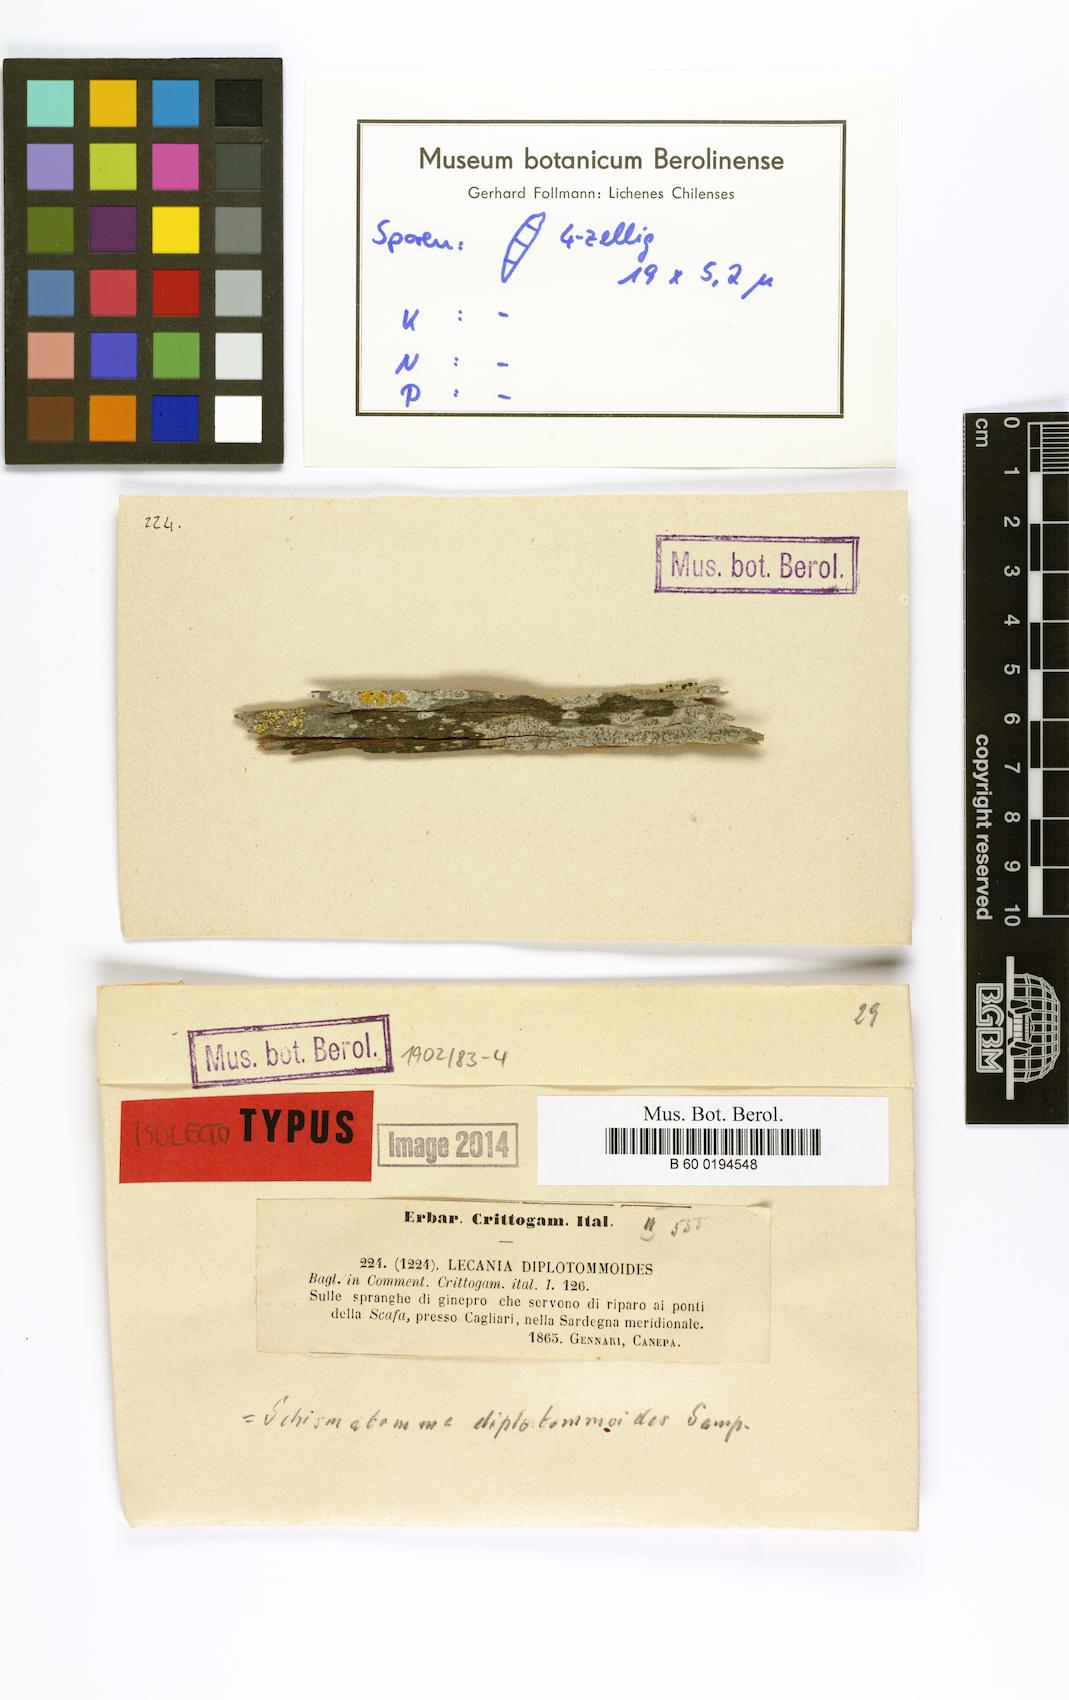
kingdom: Fungi
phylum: Ascomycota
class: Arthoniomycetes
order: Arthoniales
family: Roccellaceae
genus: Diromma
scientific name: Diromma dirinellum
